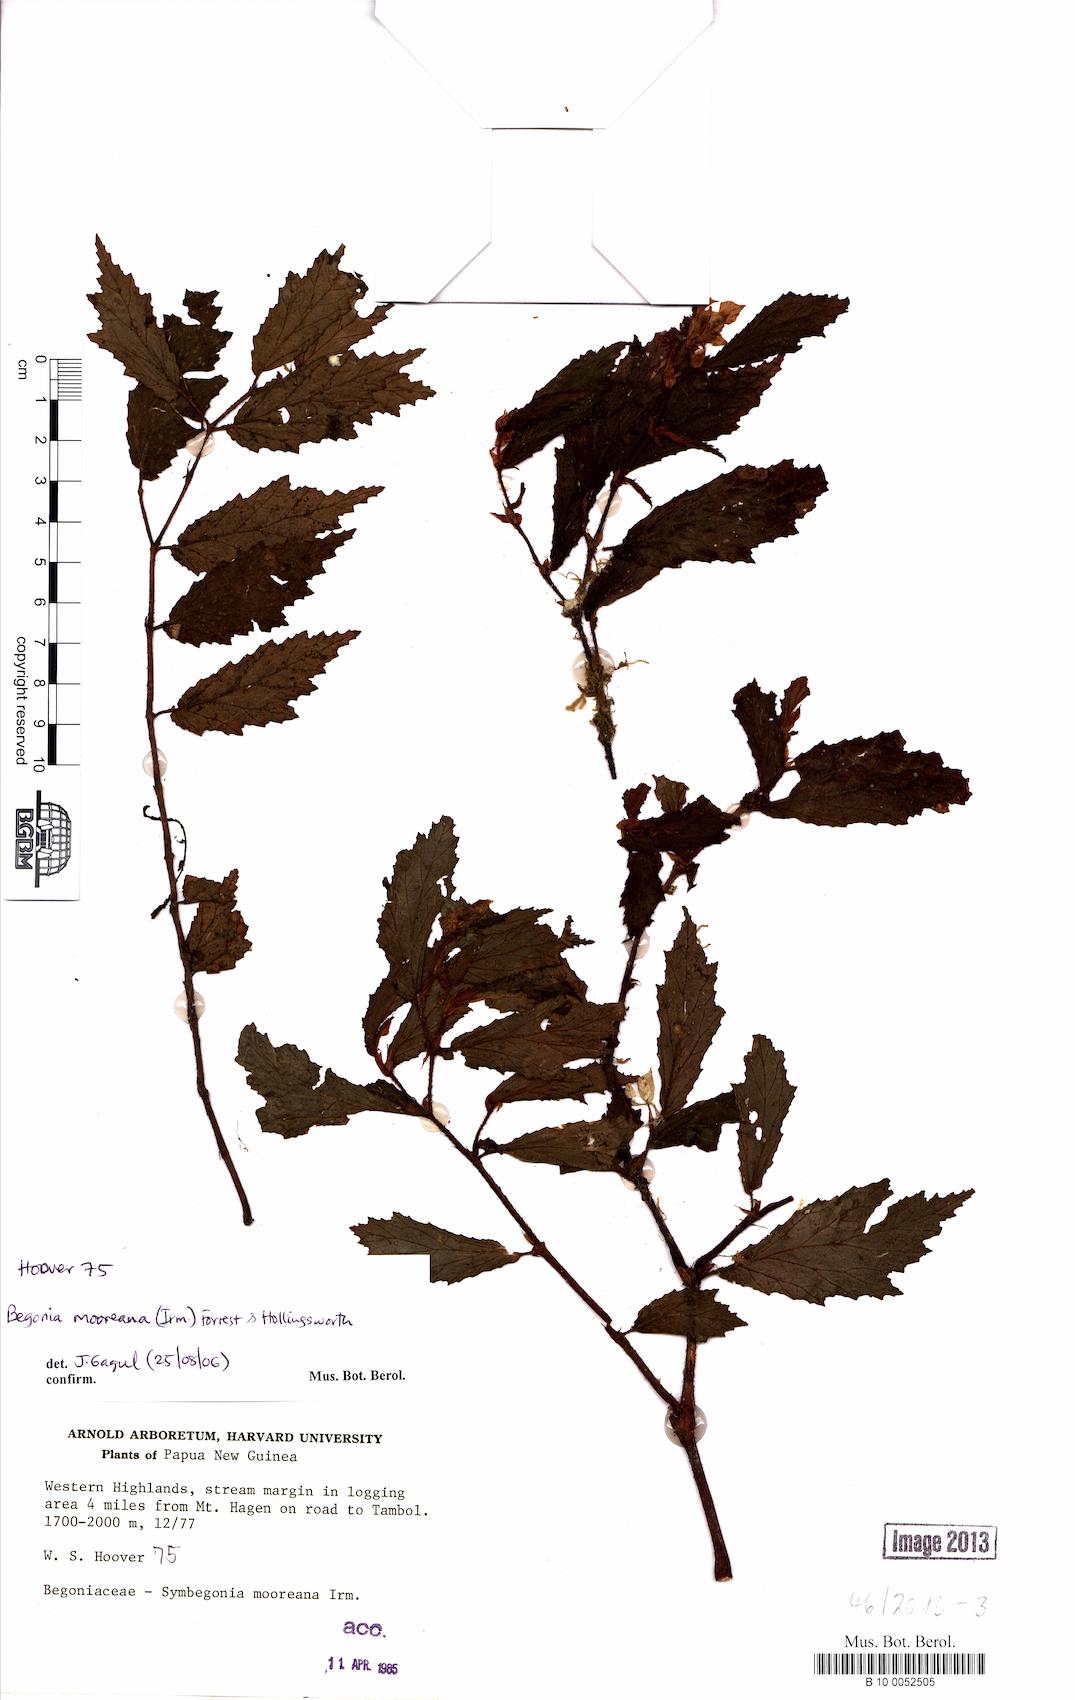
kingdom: Plantae
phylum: Tracheophyta
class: Magnoliopsida
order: Cucurbitales
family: Begoniaceae
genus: Begonia
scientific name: Begonia mooreana
